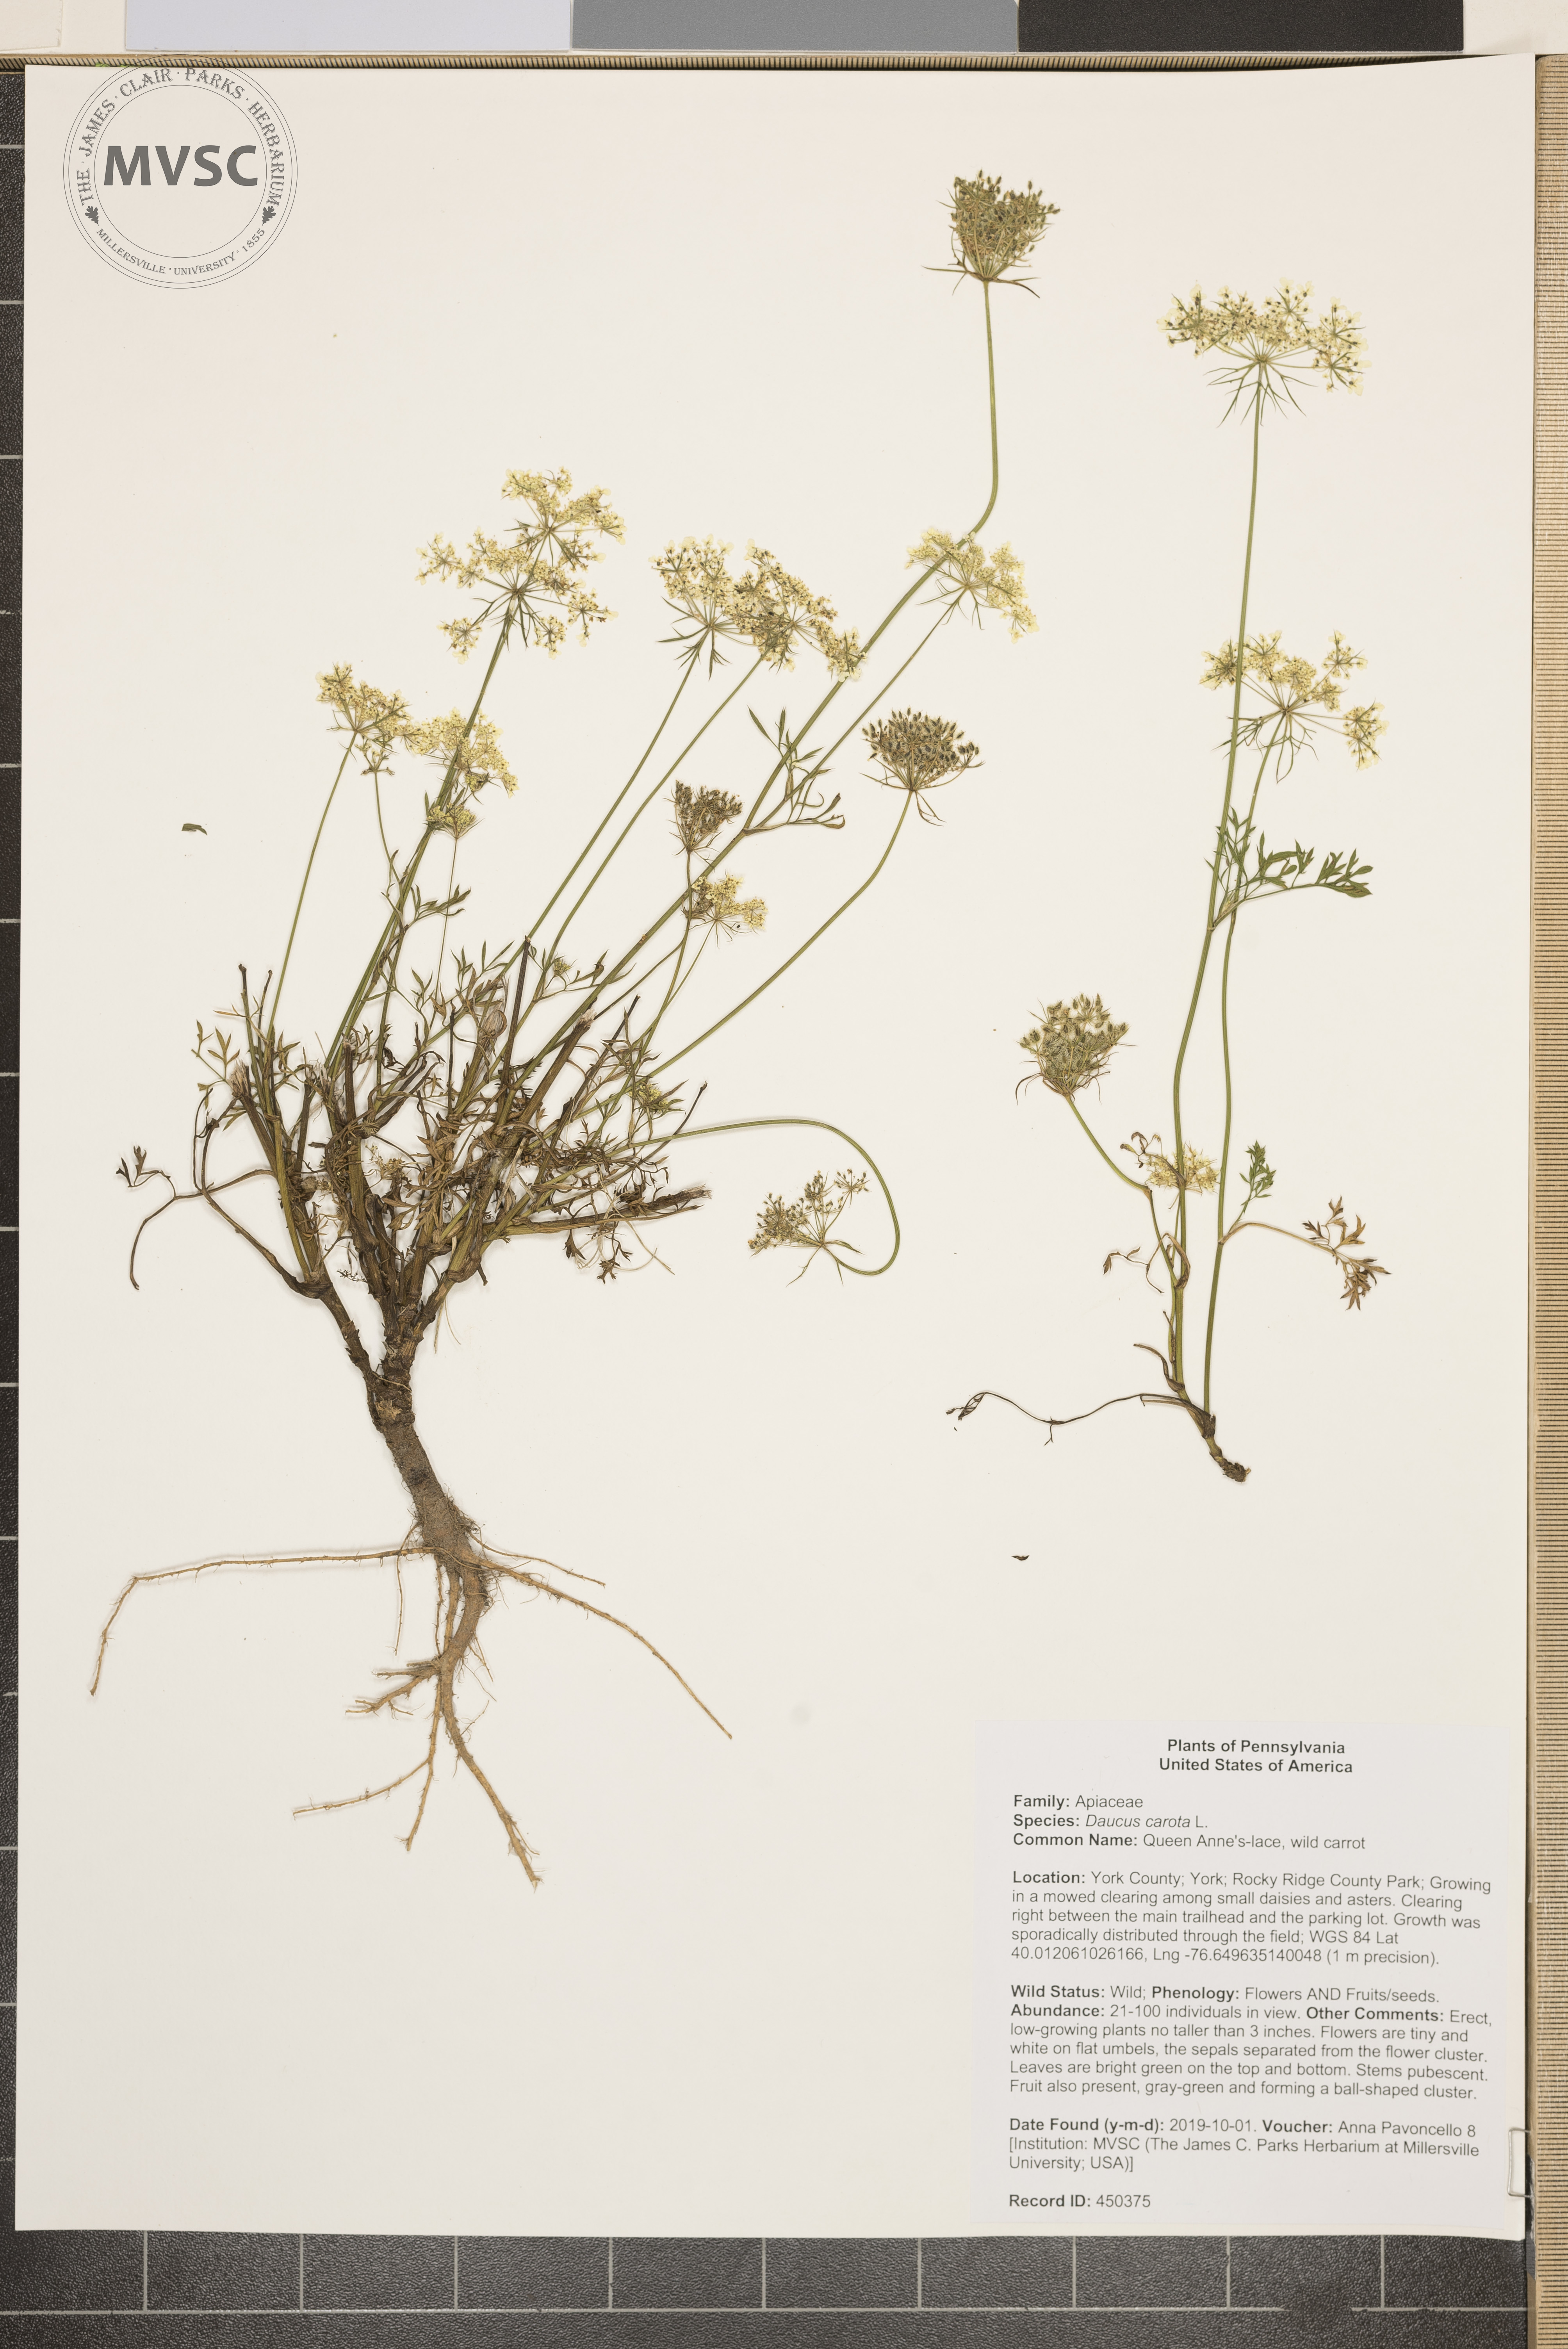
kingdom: Plantae
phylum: Tracheophyta
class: Magnoliopsida
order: Apiales
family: Apiaceae
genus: Daucus
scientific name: Daucus carota
